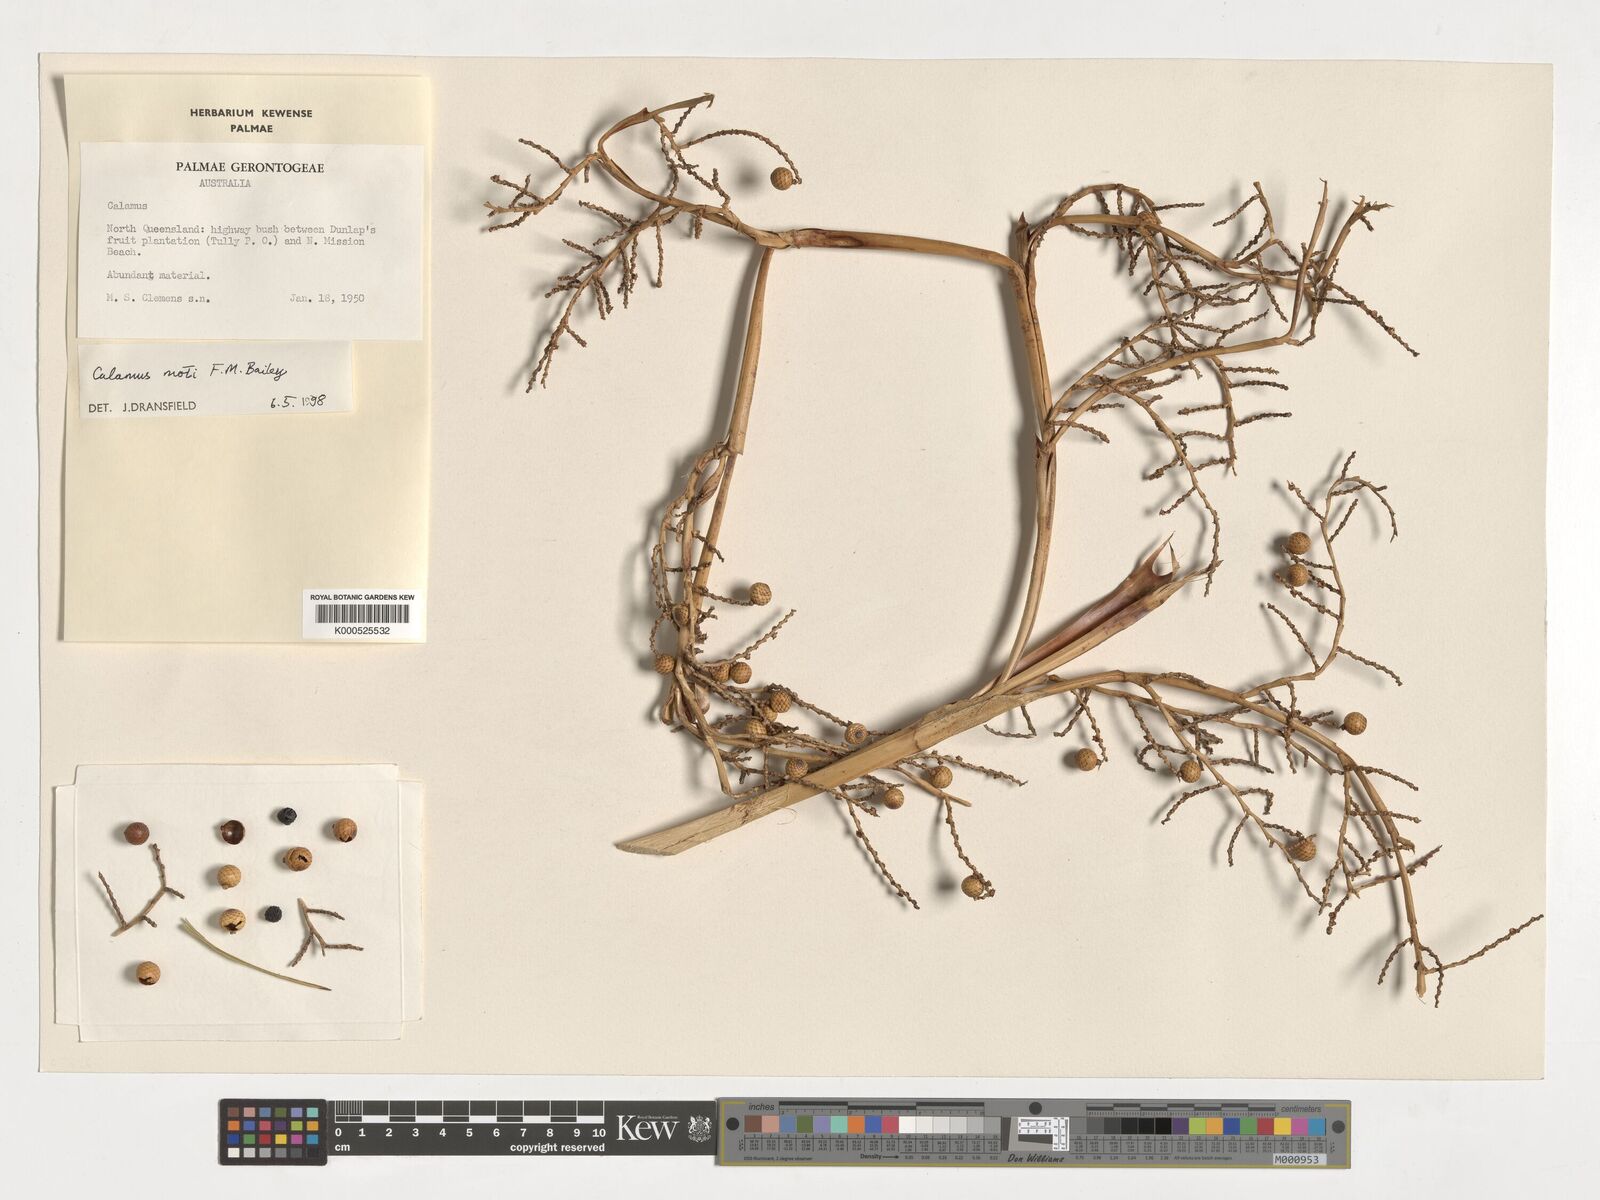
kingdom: Plantae
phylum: Tracheophyta
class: Liliopsida
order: Arecales
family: Arecaceae
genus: Calamus
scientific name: Calamus moti
